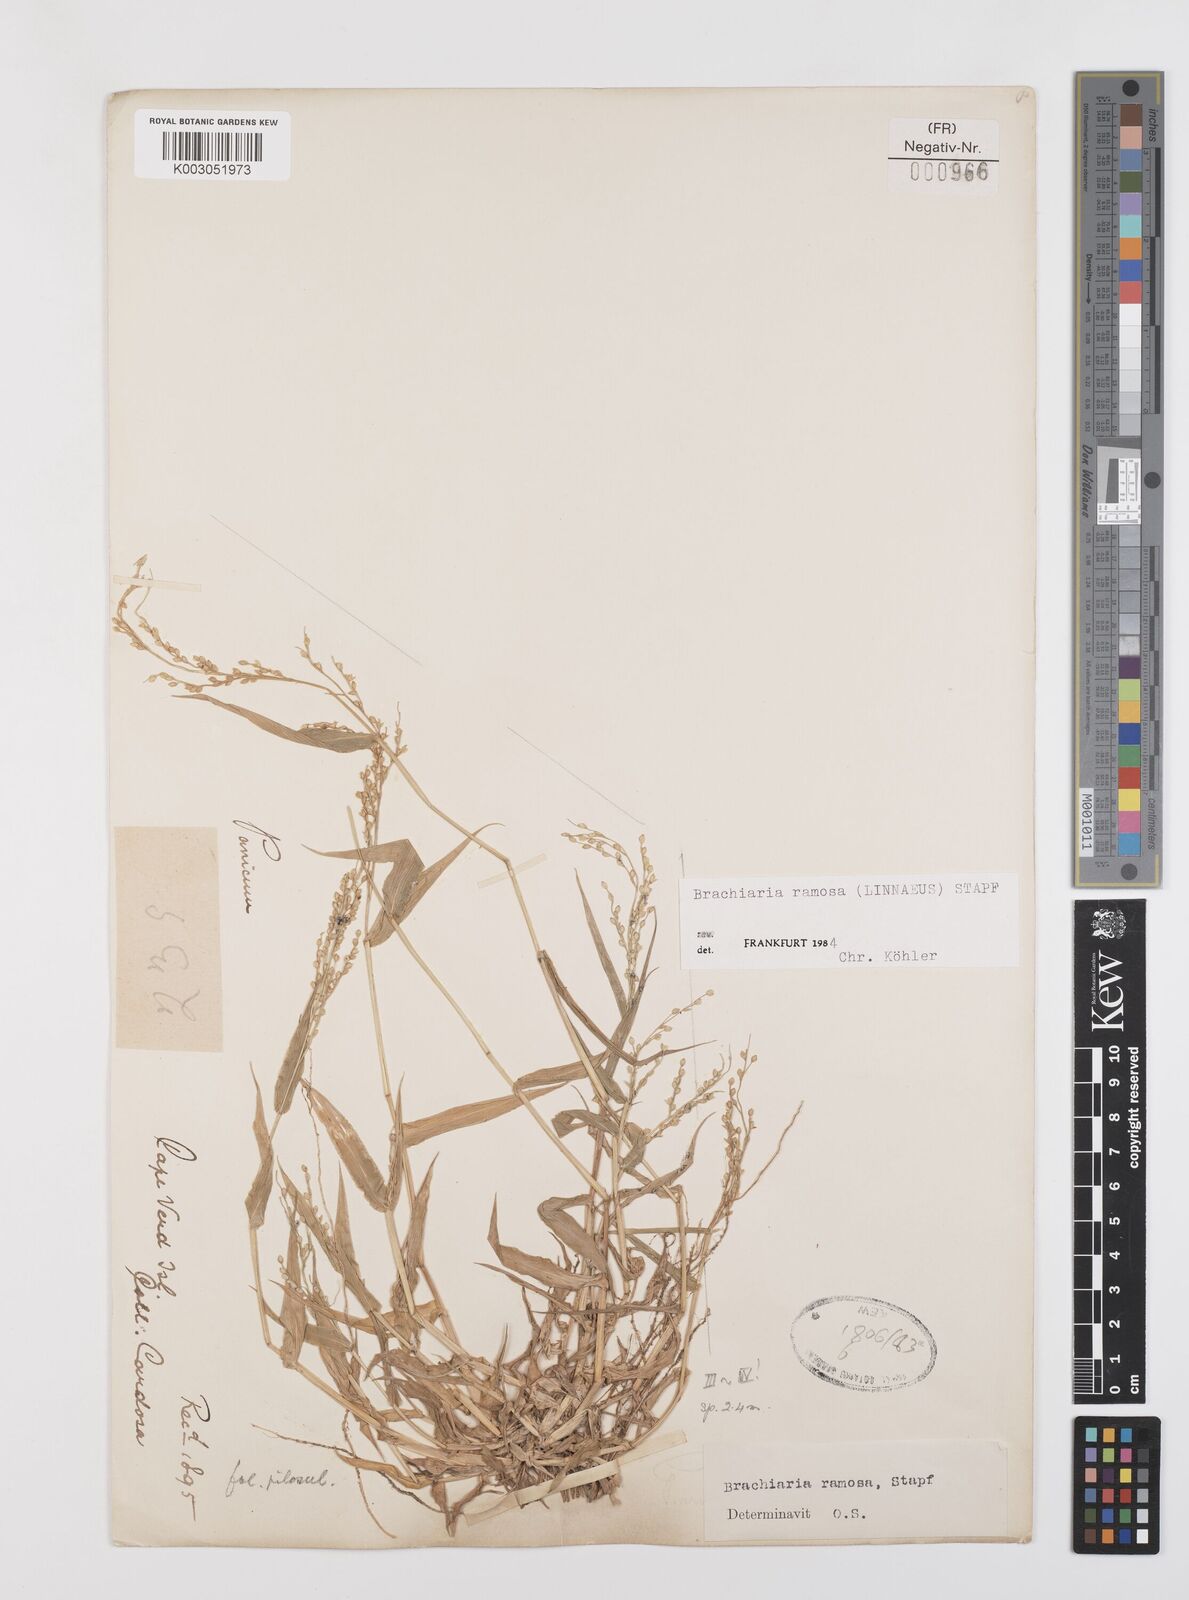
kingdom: Plantae
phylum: Tracheophyta
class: Liliopsida
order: Poales
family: Poaceae
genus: Urochloa
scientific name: Urochloa ramosa
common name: Browntop millet
